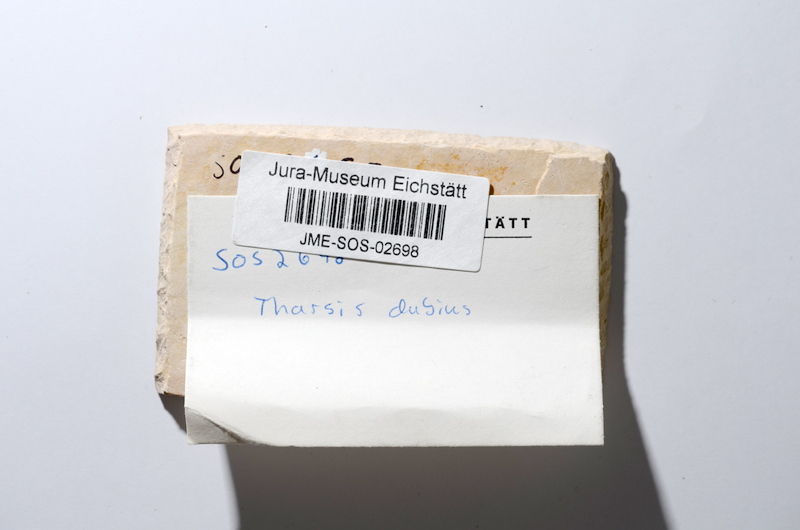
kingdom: Animalia
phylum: Chordata
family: Ascalaboidae
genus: Tharsis
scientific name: Tharsis dubius
